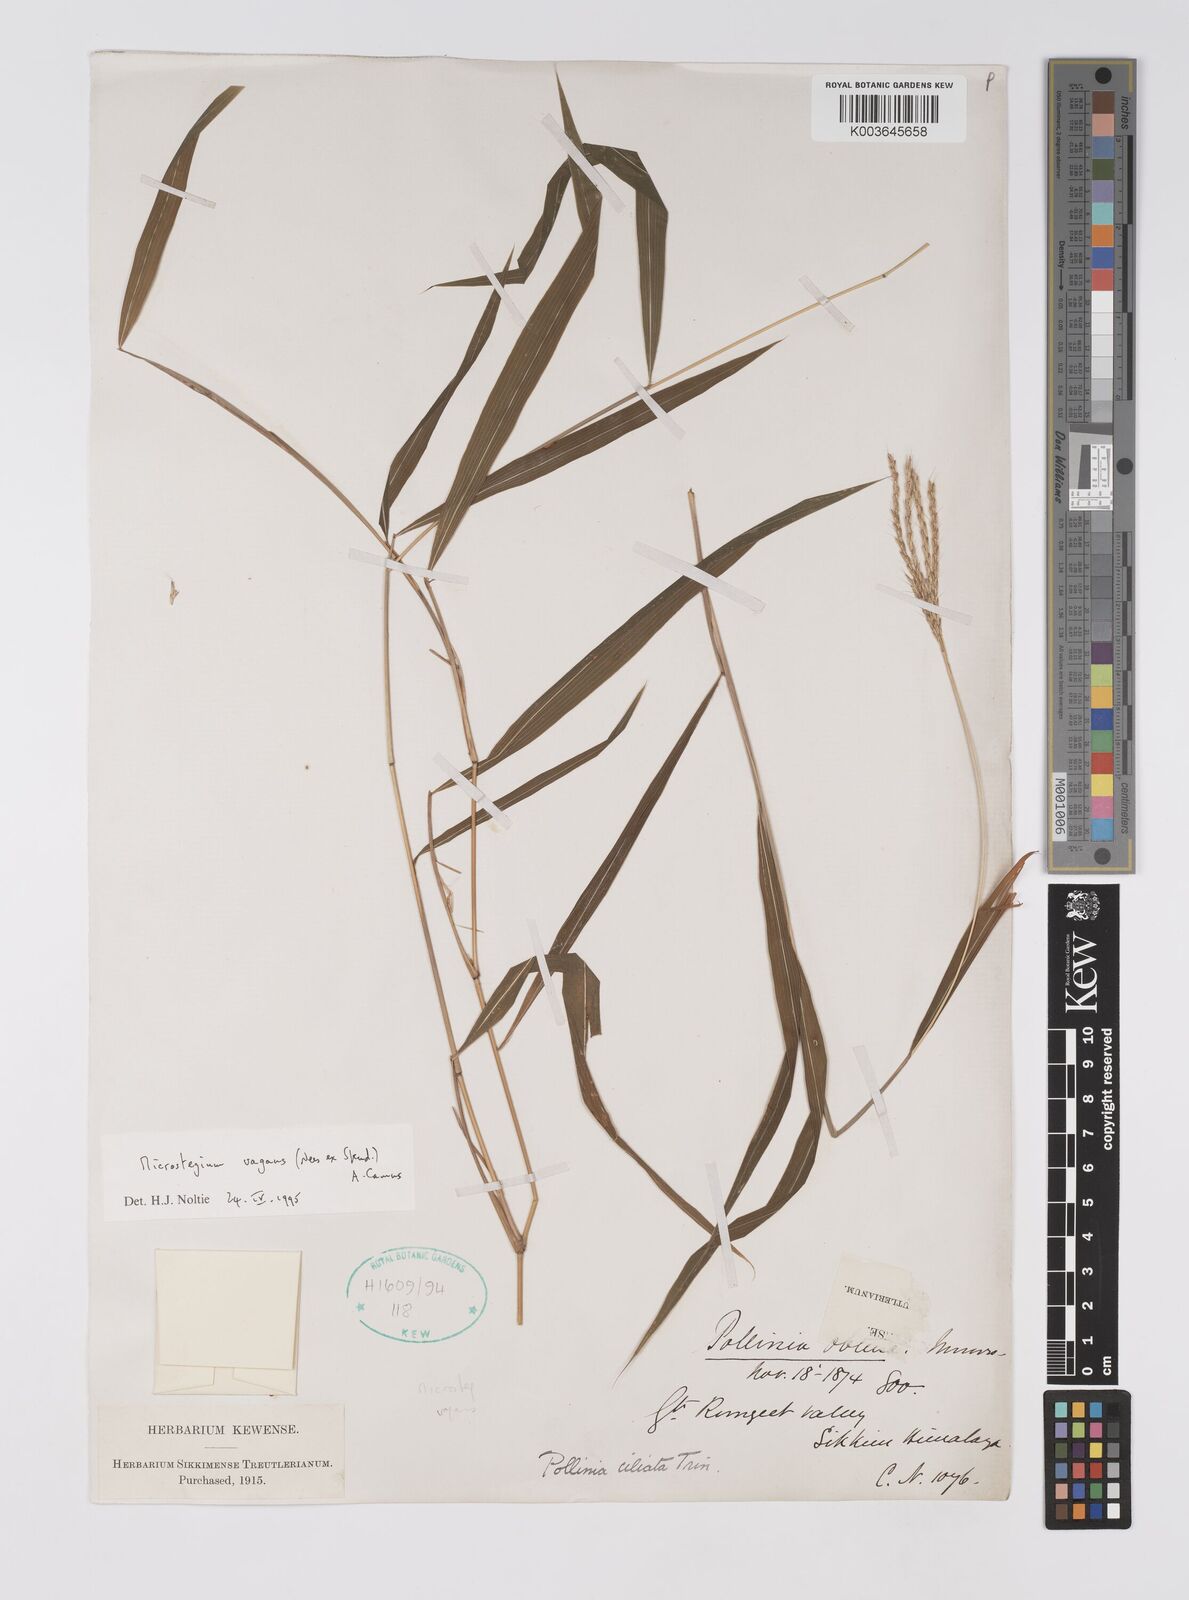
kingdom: Plantae
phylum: Tracheophyta
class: Liliopsida
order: Poales
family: Poaceae
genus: Microstegium
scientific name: Microstegium fasciculatum
